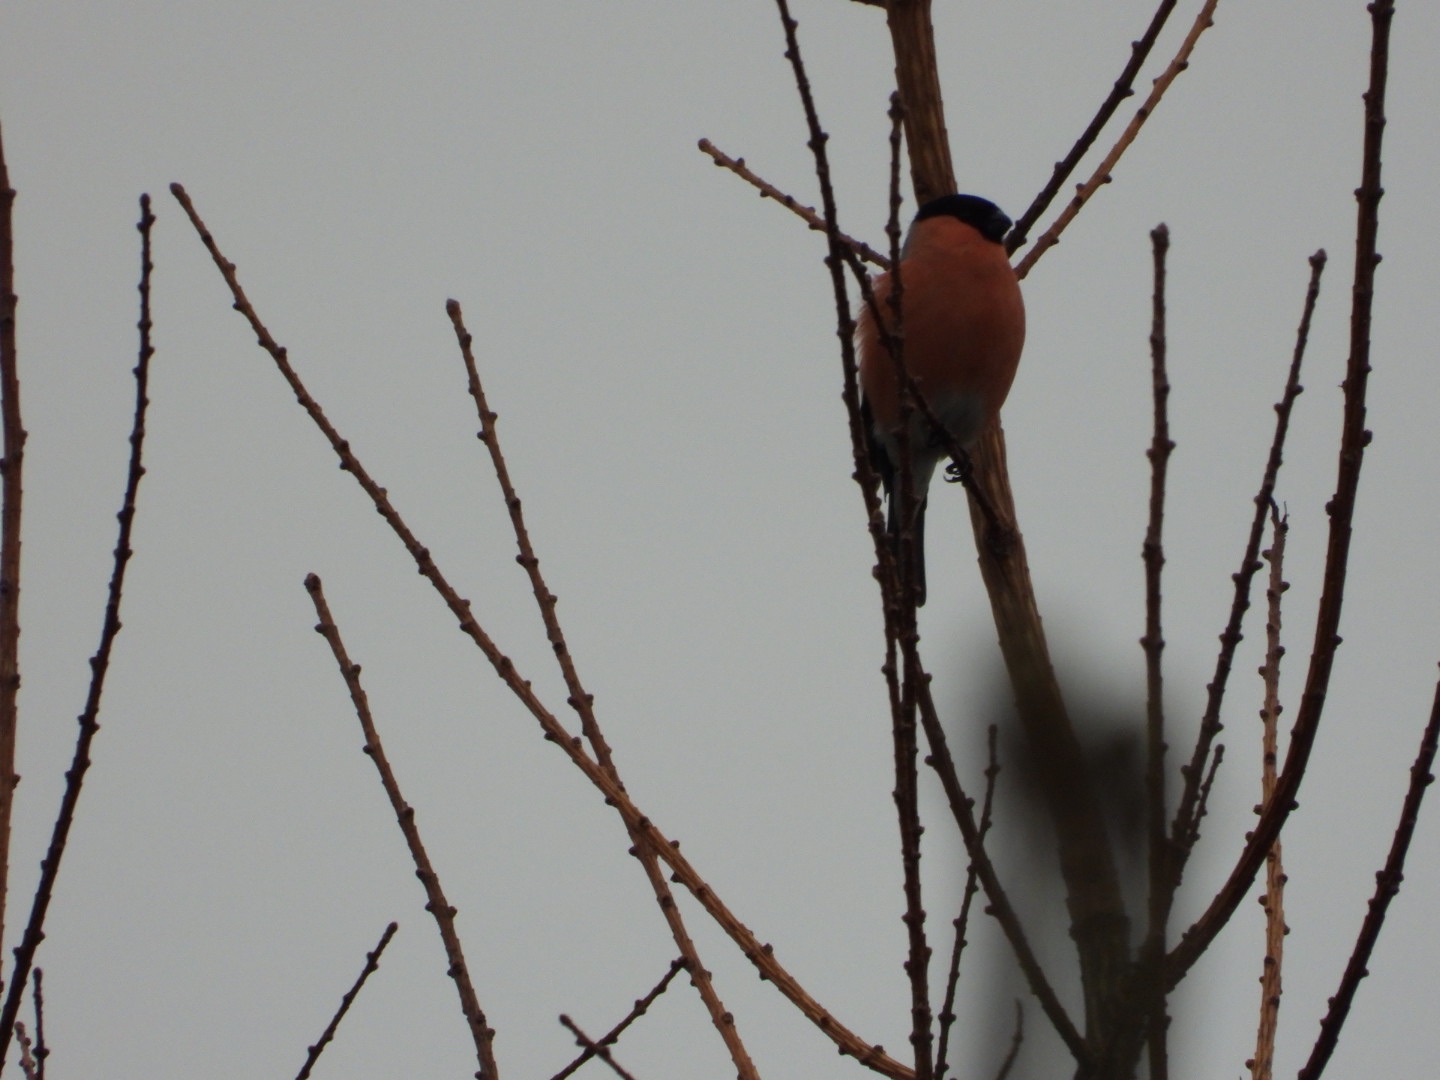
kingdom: Animalia
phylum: Chordata
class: Aves
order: Passeriformes
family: Fringillidae
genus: Pyrrhula
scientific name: Pyrrhula pyrrhula
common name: Dompap
